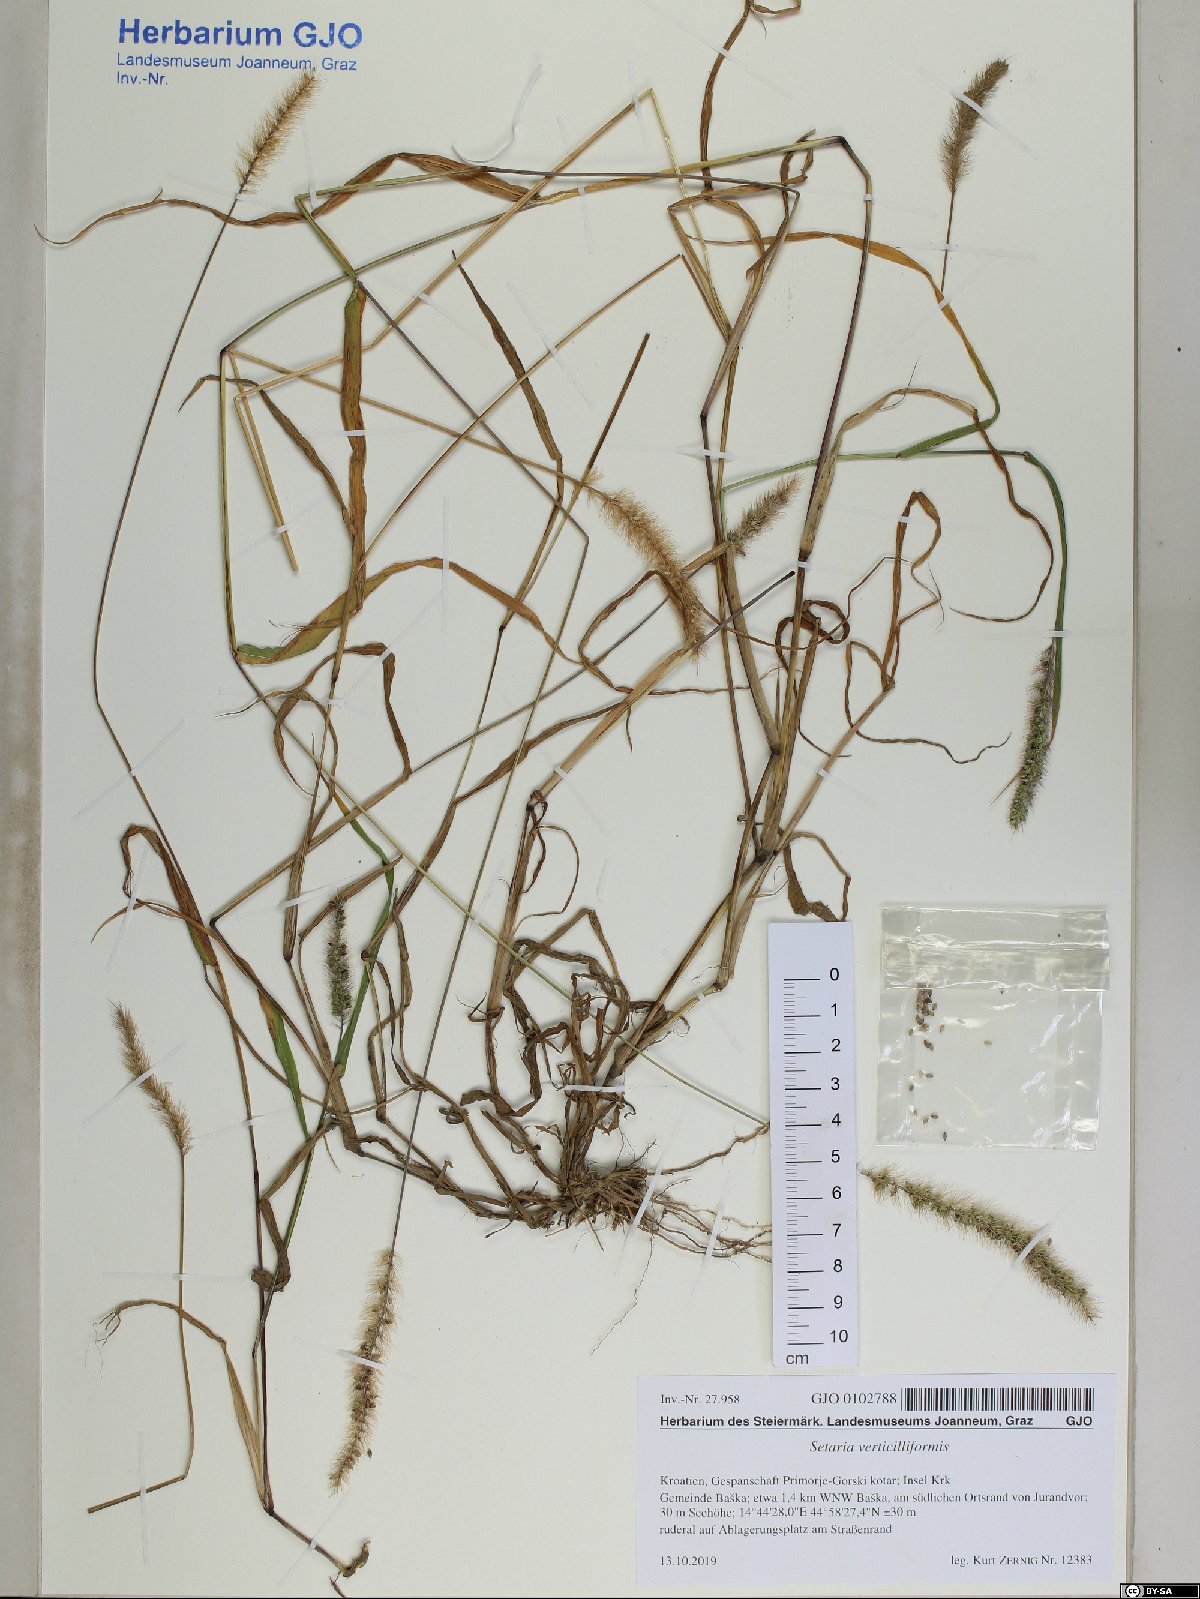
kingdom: Plantae
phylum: Tracheophyta
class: Liliopsida
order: Poales
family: Poaceae
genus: Setaria
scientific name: Setaria verticillata
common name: Hooked bristlegrass
